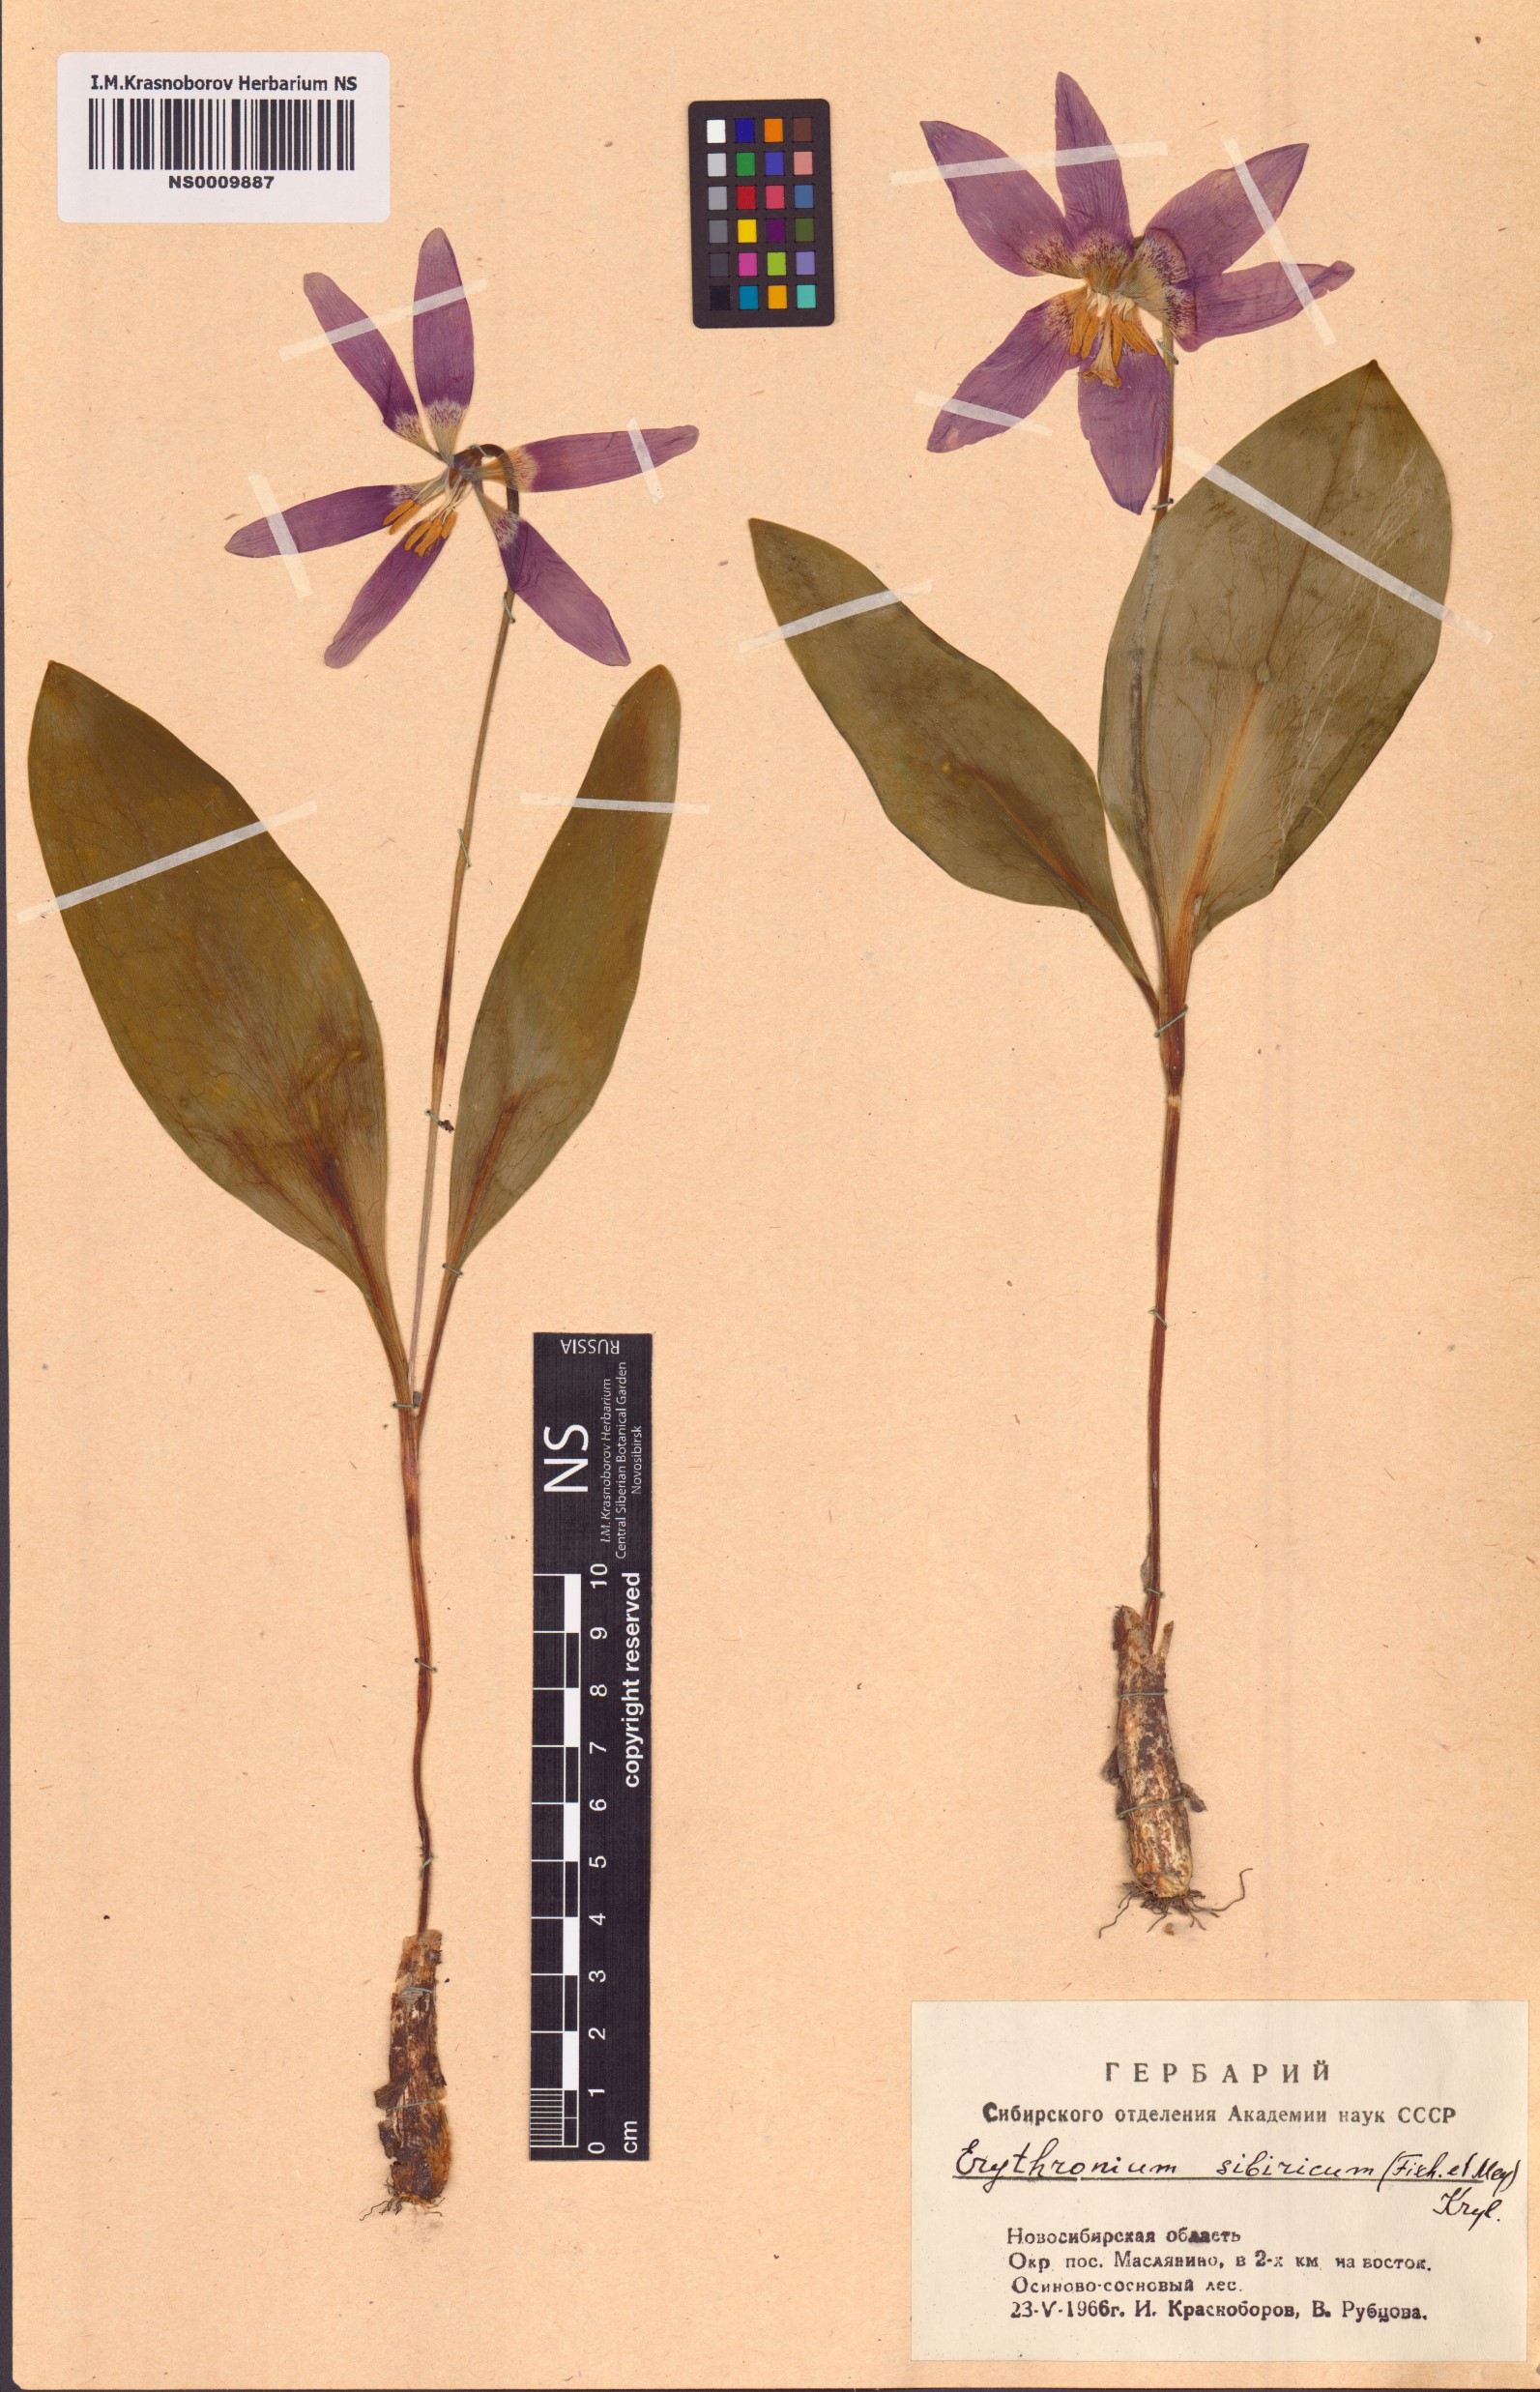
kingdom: Plantae
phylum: Tracheophyta
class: Liliopsida
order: Liliales
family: Liliaceae
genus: Erythronium
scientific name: Erythronium sibiricum
